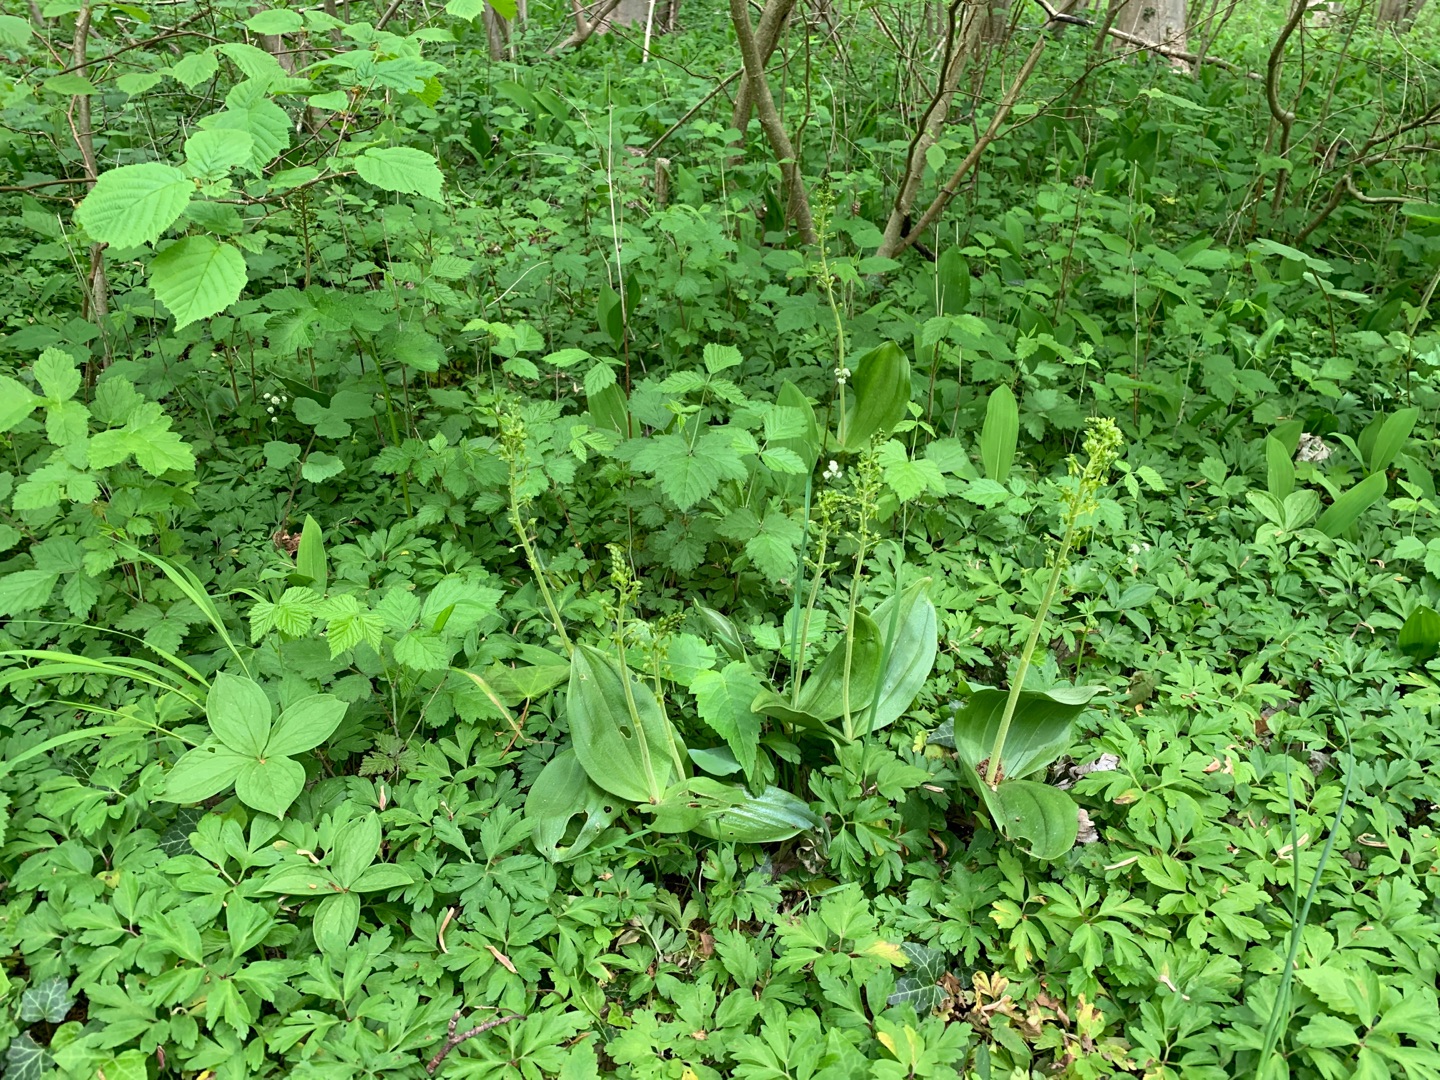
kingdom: Plantae
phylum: Tracheophyta
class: Liliopsida
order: Asparagales
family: Orchidaceae
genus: Neottia
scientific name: Neottia ovata
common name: Ægbladet fliglæbe
